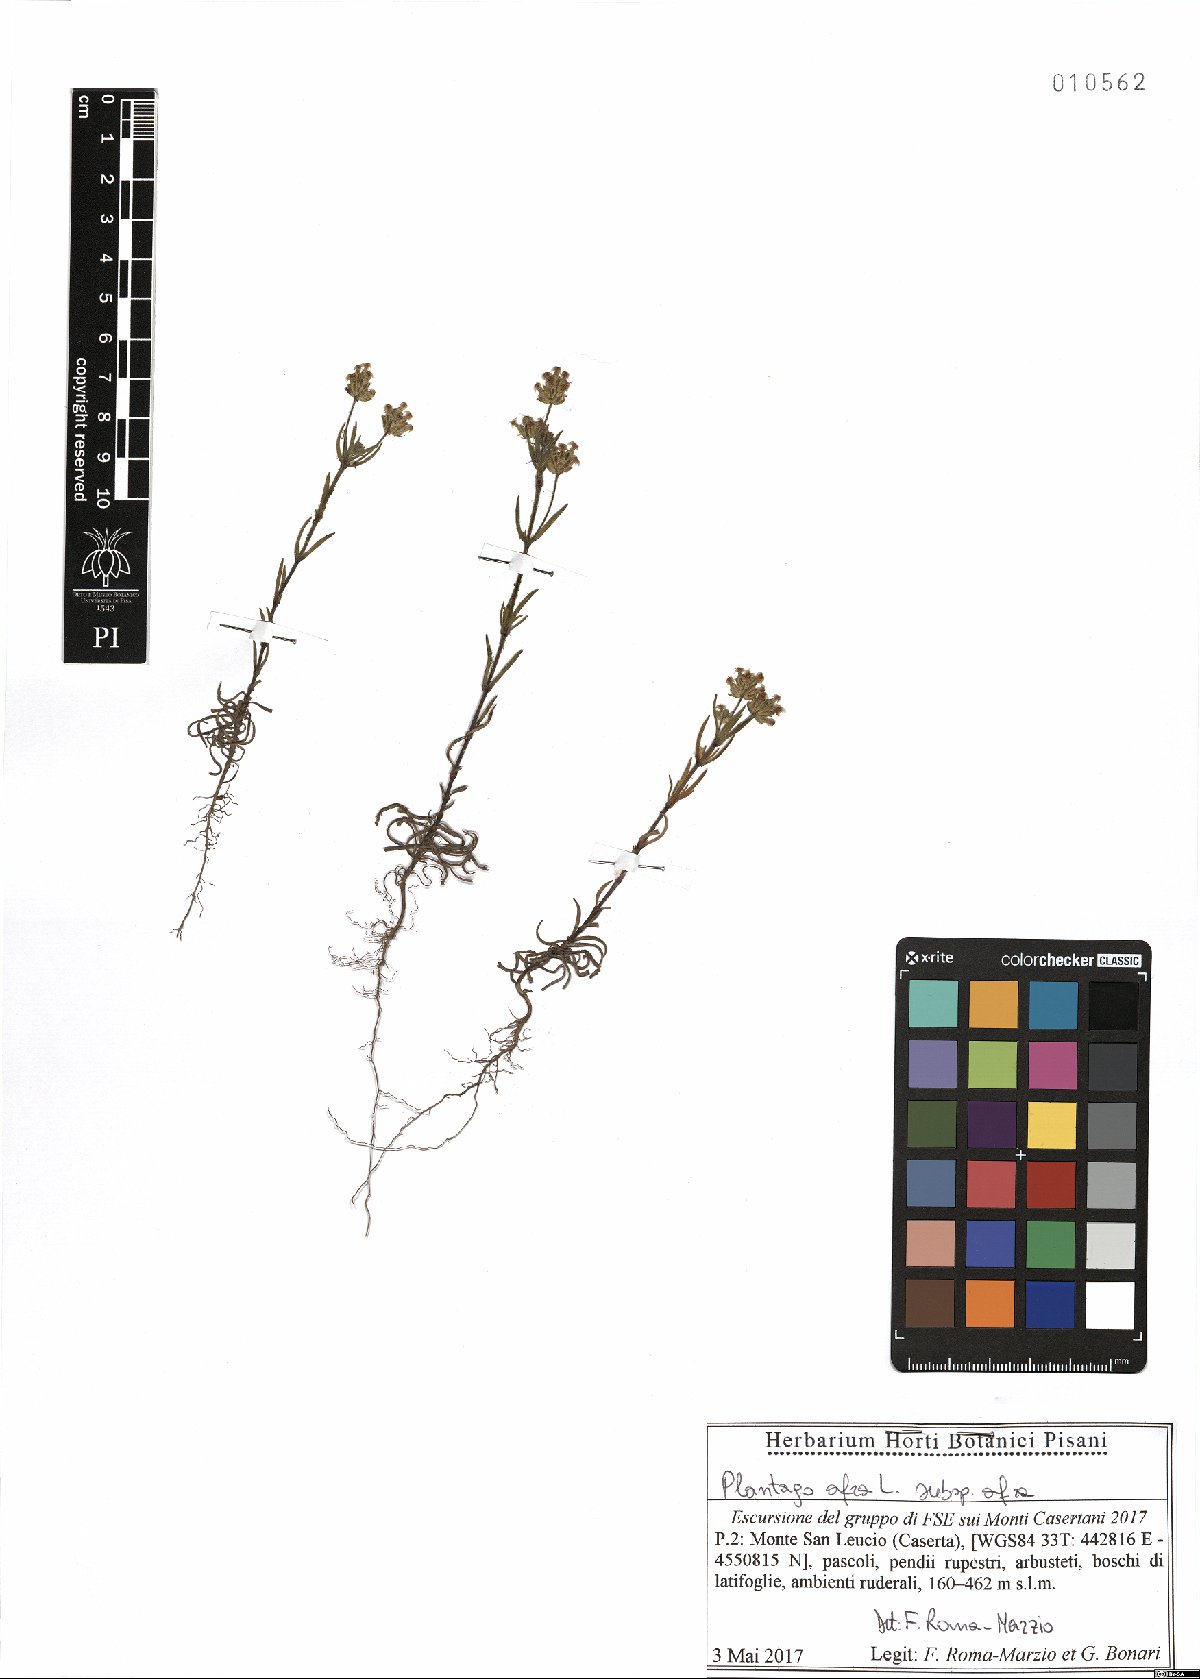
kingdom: Plantae
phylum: Tracheophyta
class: Magnoliopsida
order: Lamiales
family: Plantaginaceae
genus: Plantago
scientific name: Plantago afra
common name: Glandular plantain
